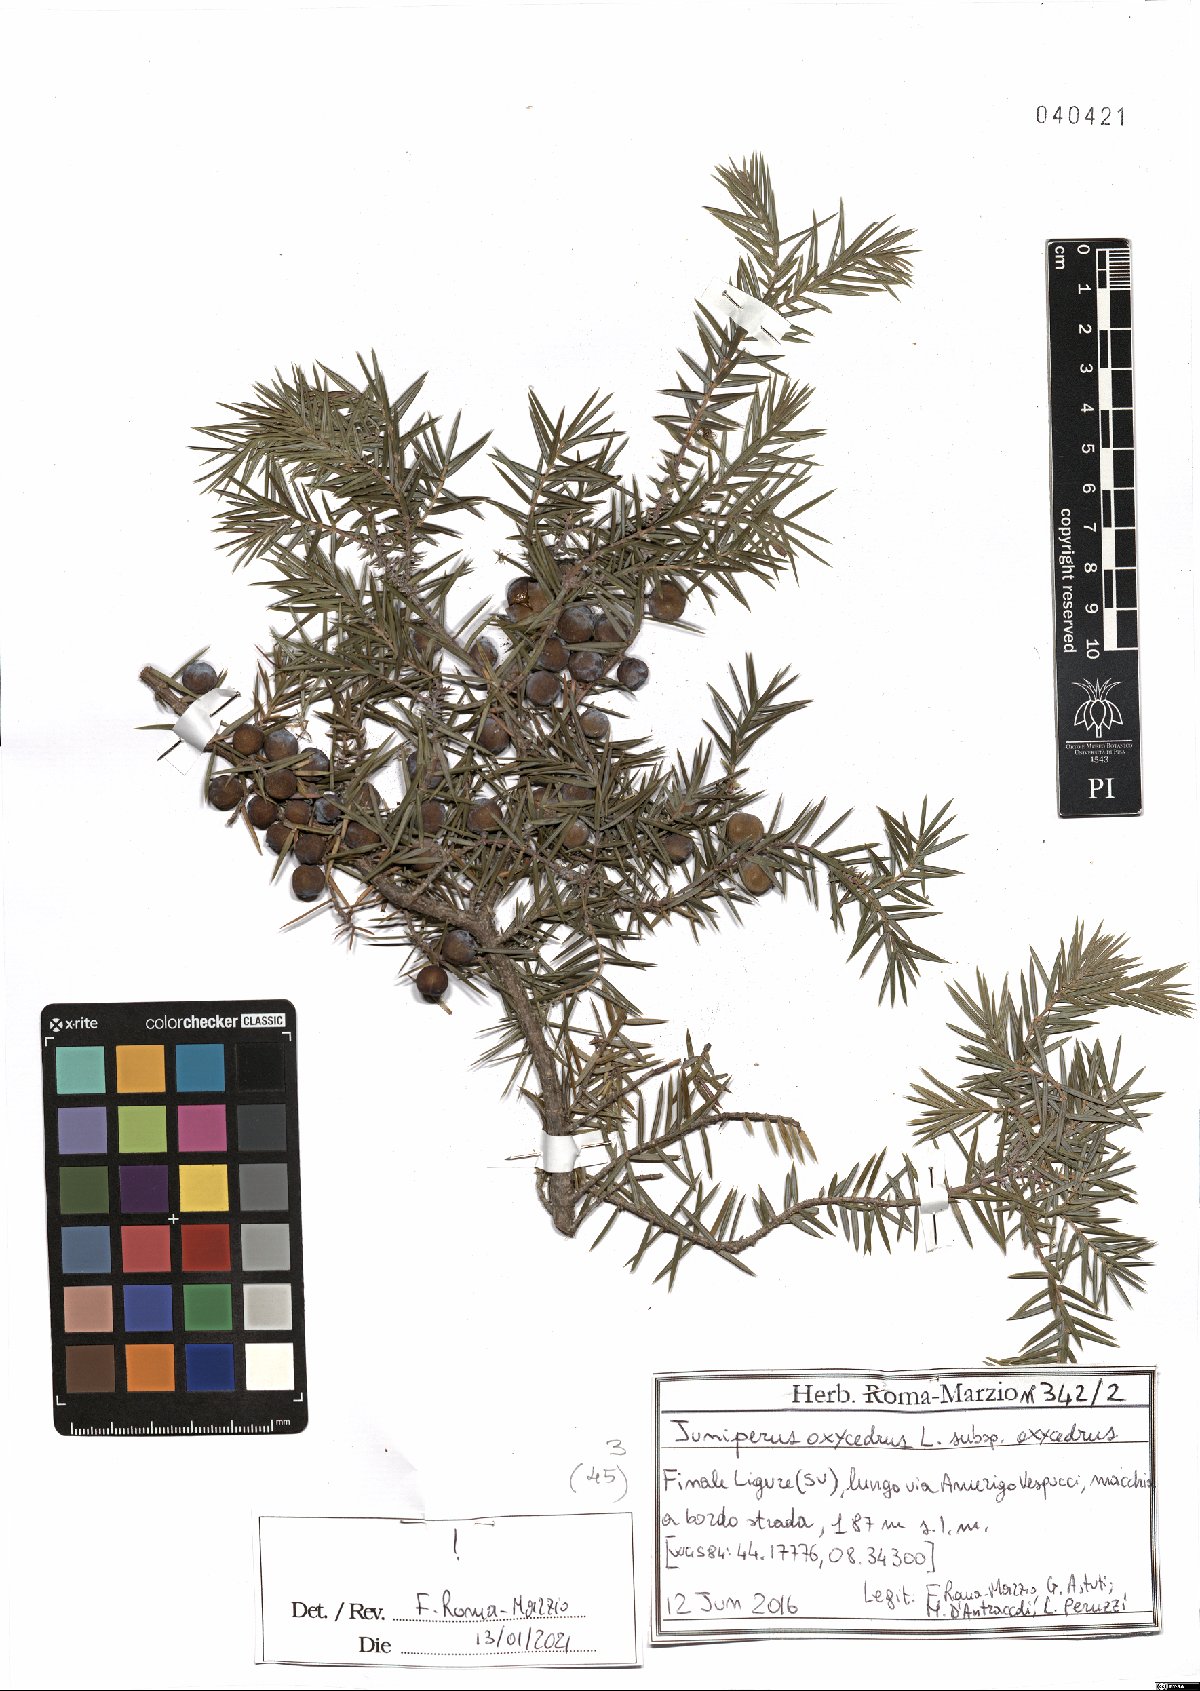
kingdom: Plantae
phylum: Tracheophyta
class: Pinopsida
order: Pinales
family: Cupressaceae
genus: Juniperus
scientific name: Juniperus oxycedrus
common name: Prickly juniper
